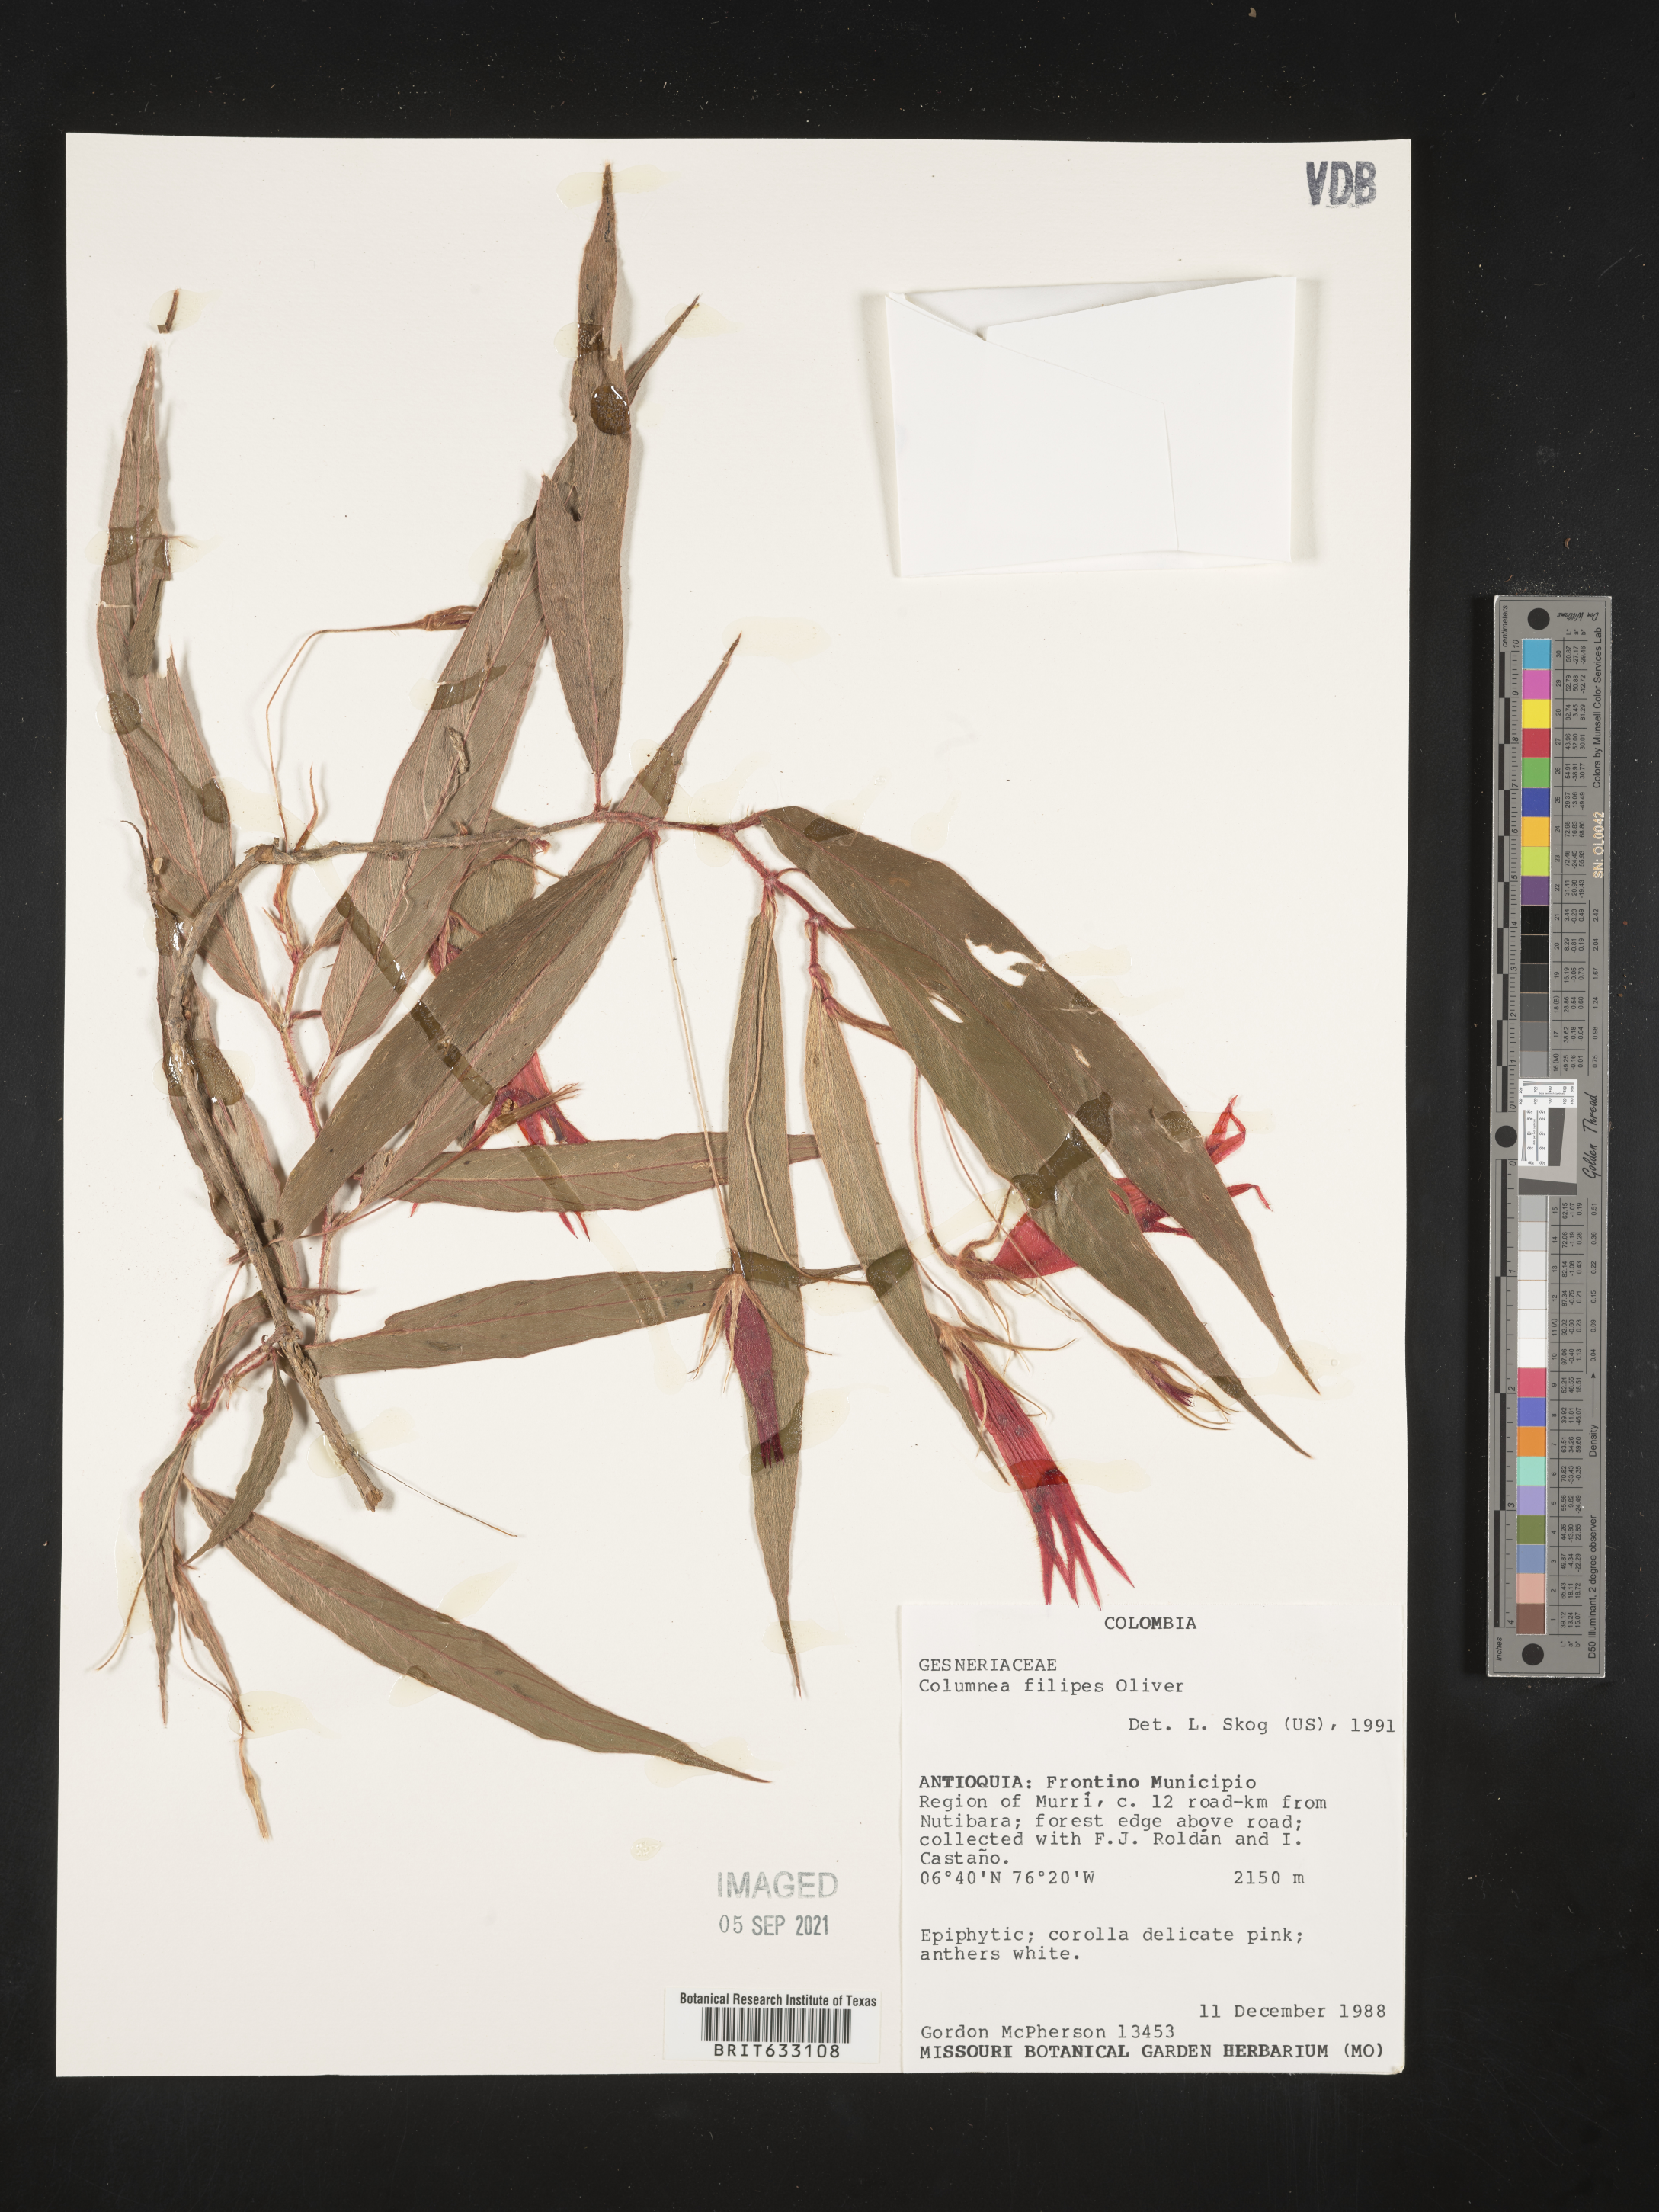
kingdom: Plantae
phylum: Tracheophyta
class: Magnoliopsida
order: Lamiales
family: Gesneriaceae
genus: Columnea
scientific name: Columnea
